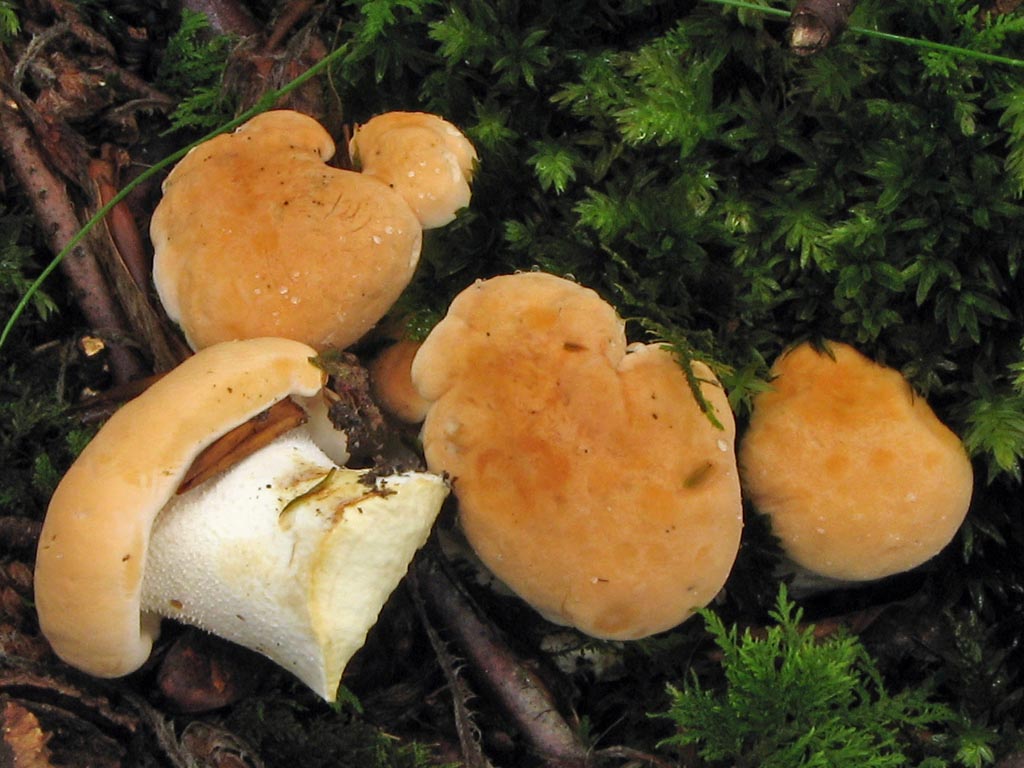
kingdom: Fungi
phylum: Basidiomycota
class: Agaricomycetes
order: Cantharellales
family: Hydnaceae
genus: Hydnum
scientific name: Hydnum
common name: pigsvamp
